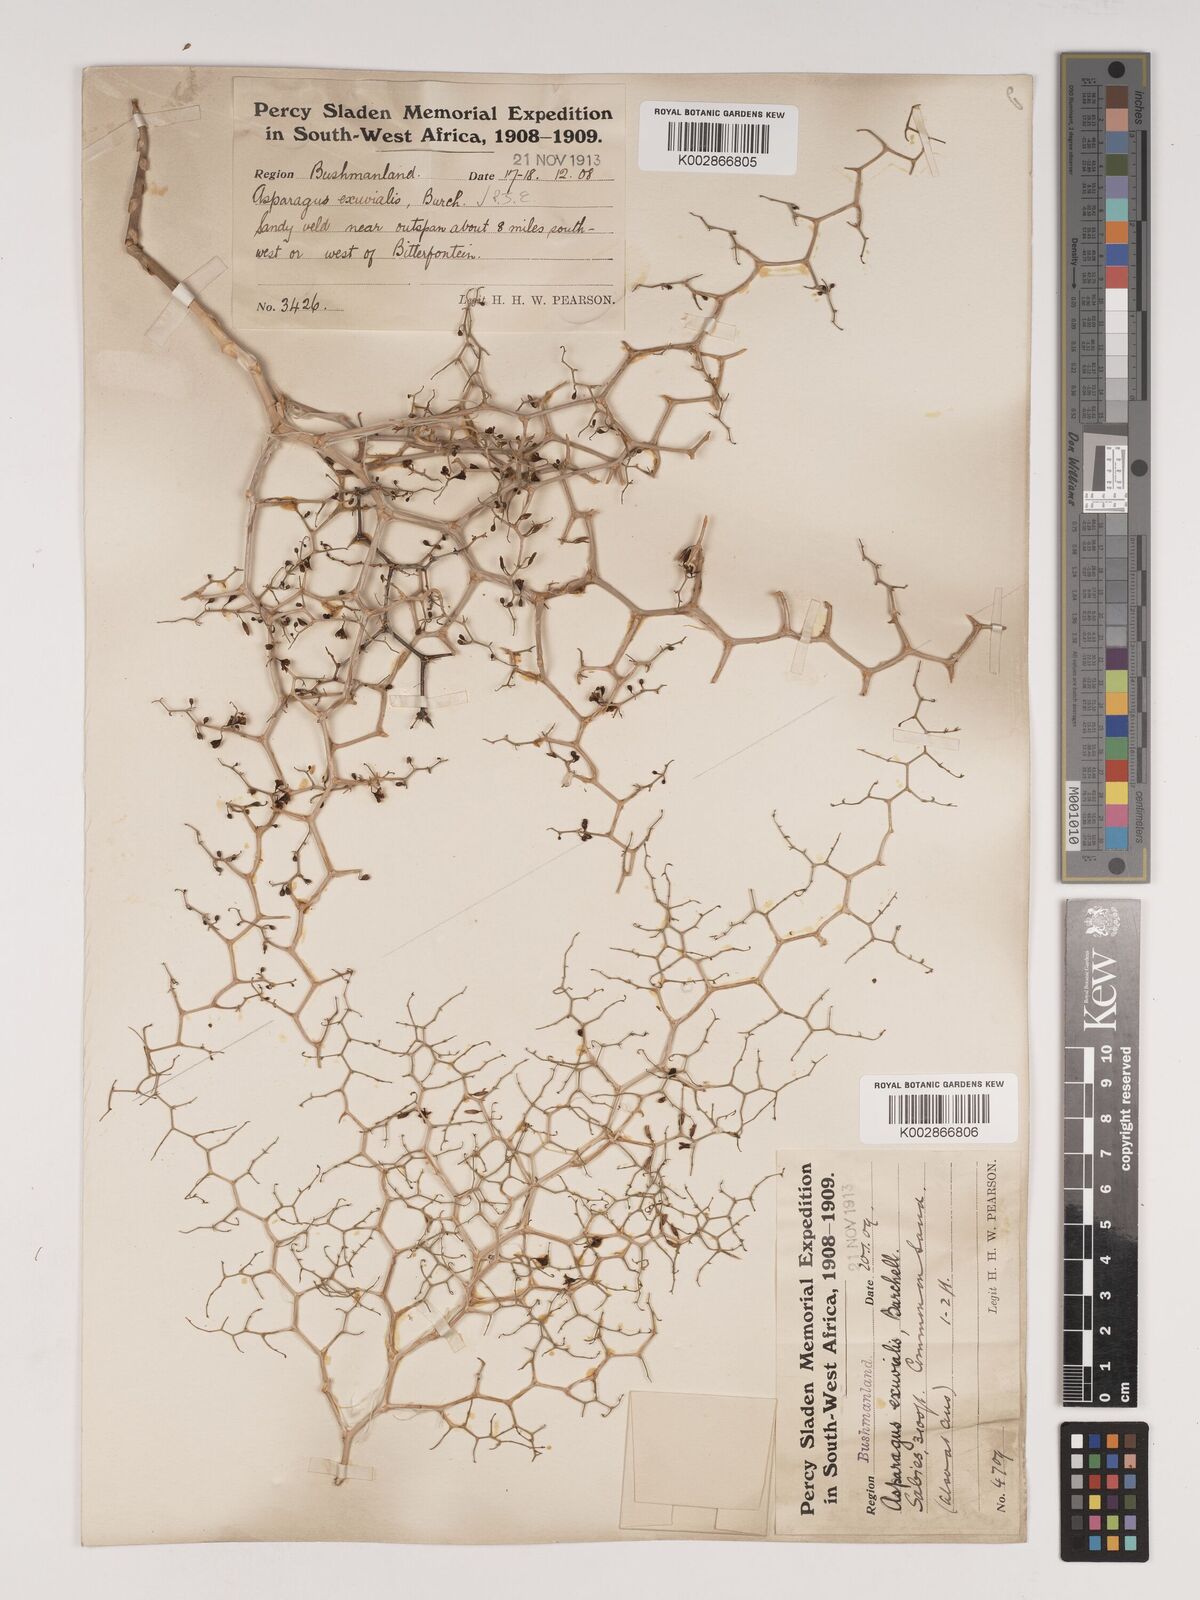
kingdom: Plantae
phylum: Tracheophyta
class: Liliopsida
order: Asparagales
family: Asparagaceae
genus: Asparagus
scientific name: Asparagus exuvialis
